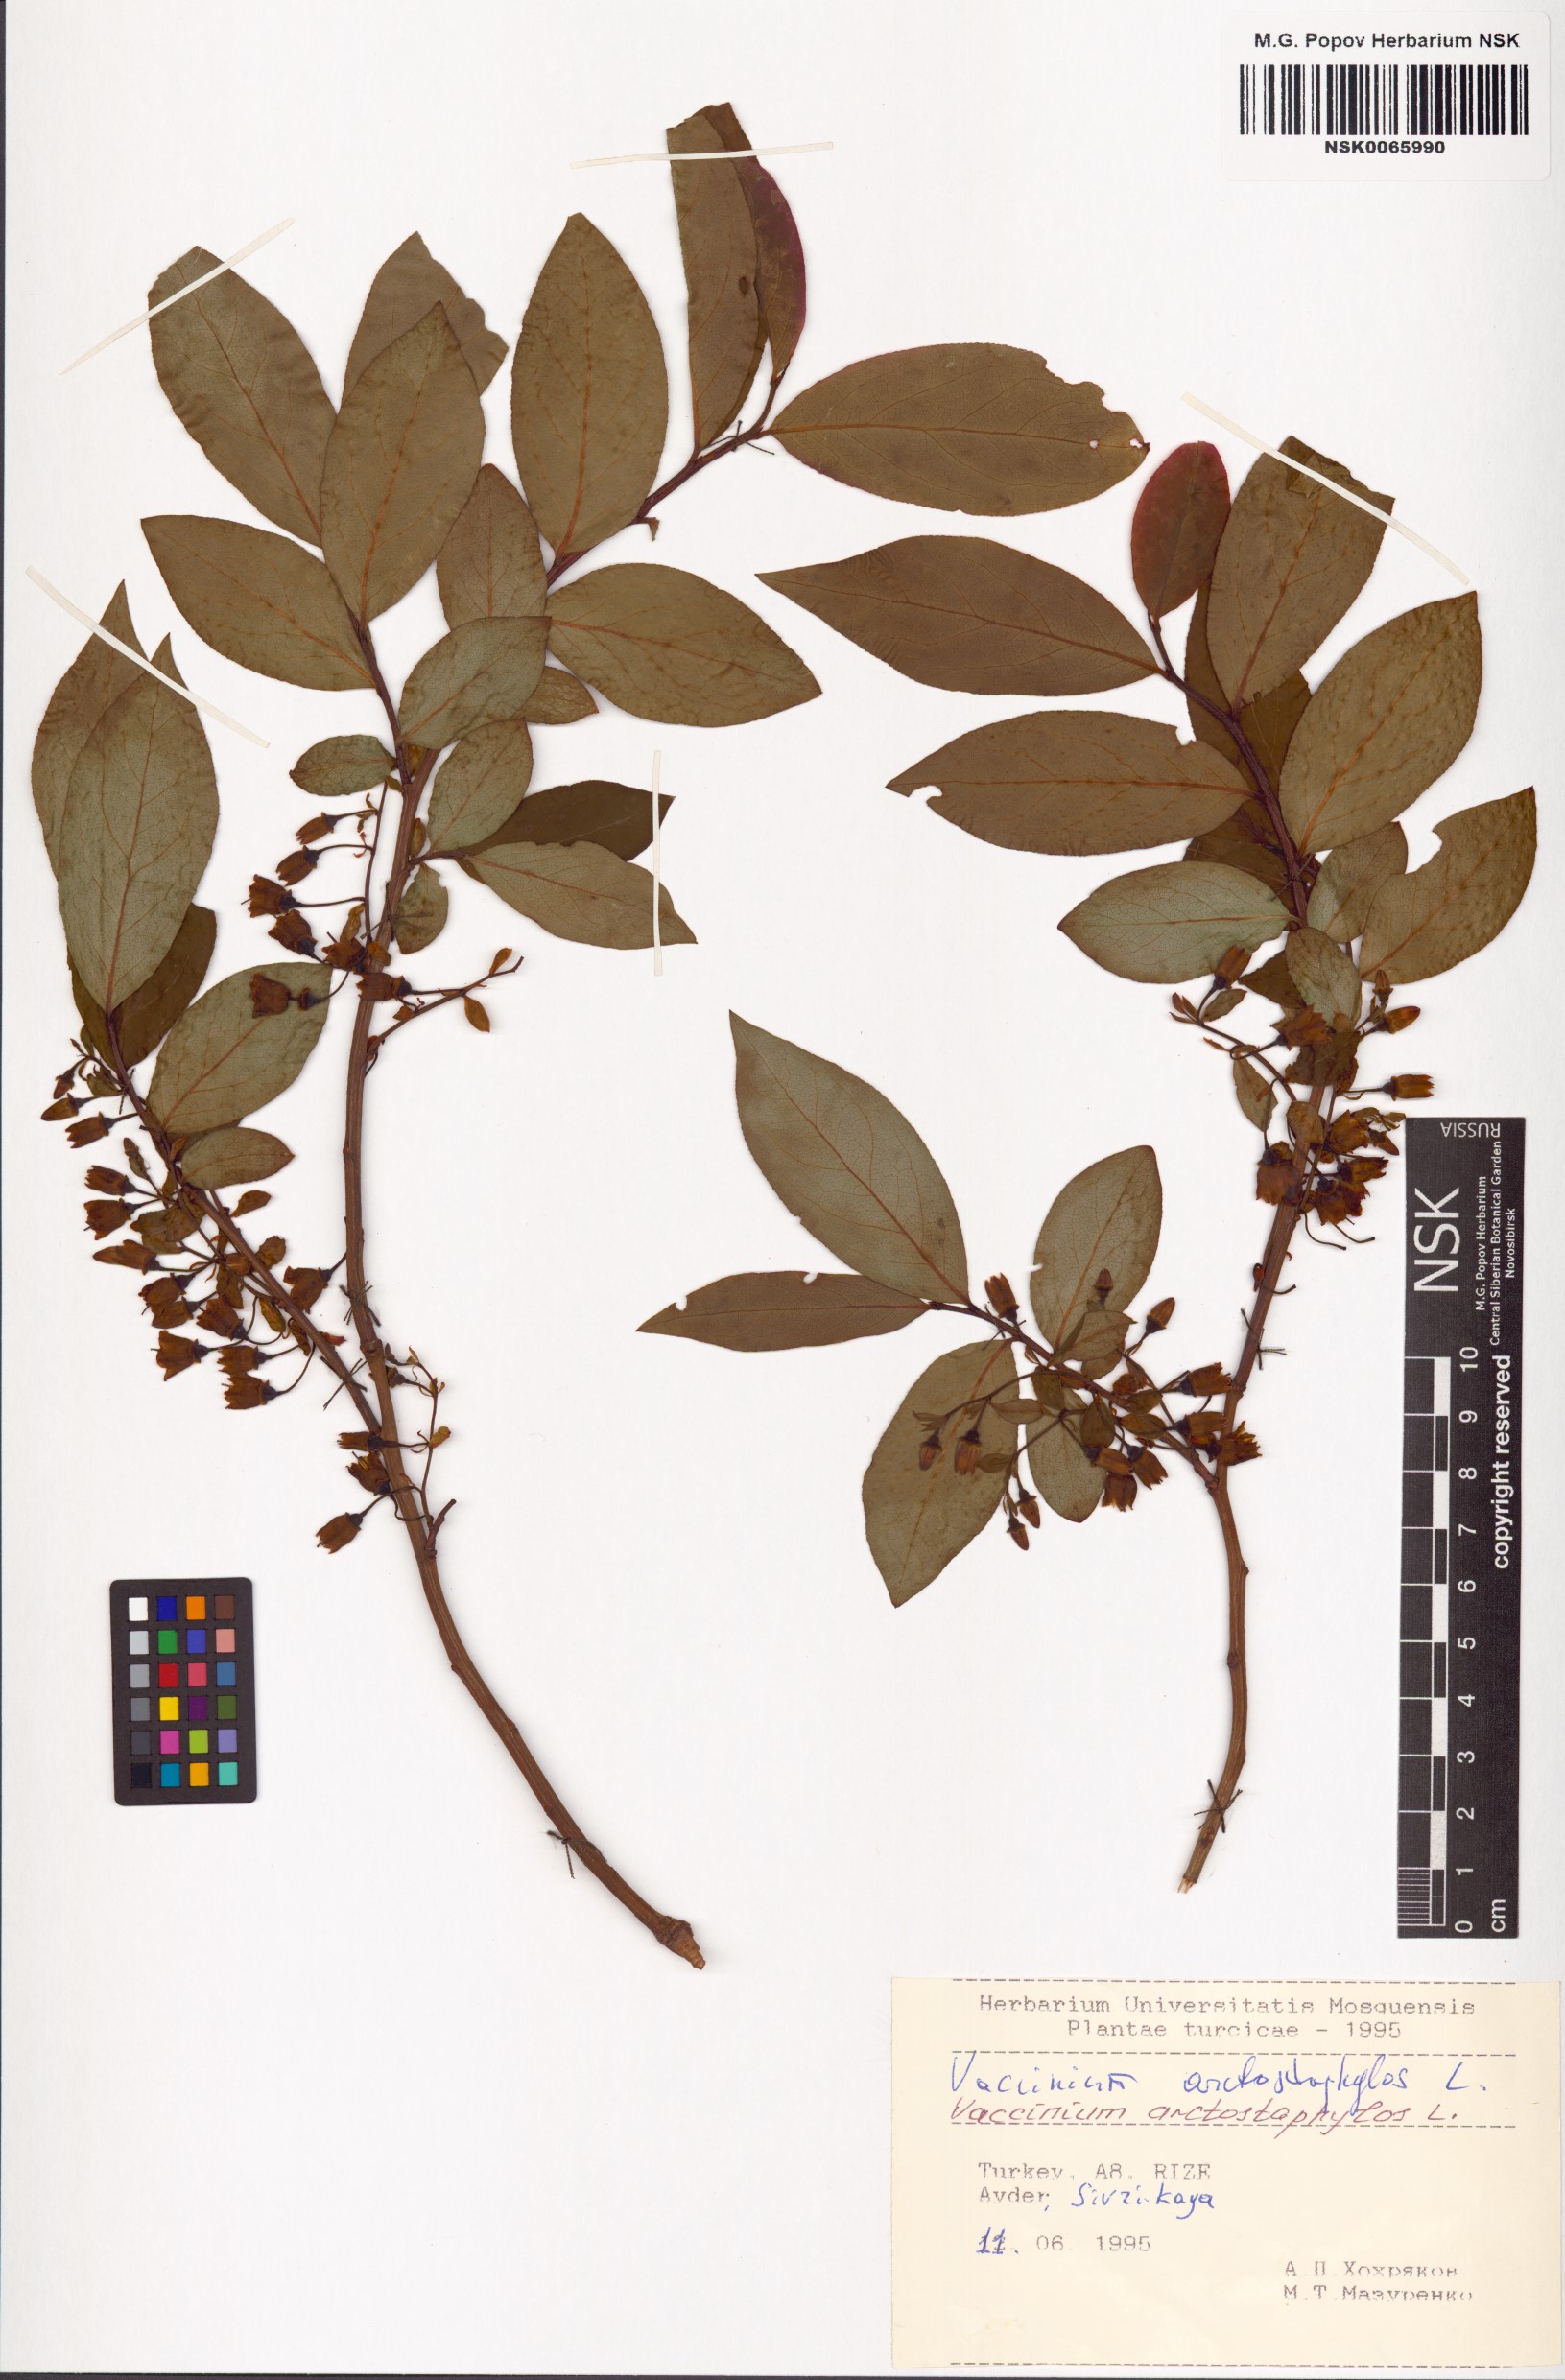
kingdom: Plantae
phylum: Tracheophyta
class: Magnoliopsida
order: Ericales
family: Ericaceae
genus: Vaccinium
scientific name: Vaccinium arctostaphylos
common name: Caucasian whortleberry
